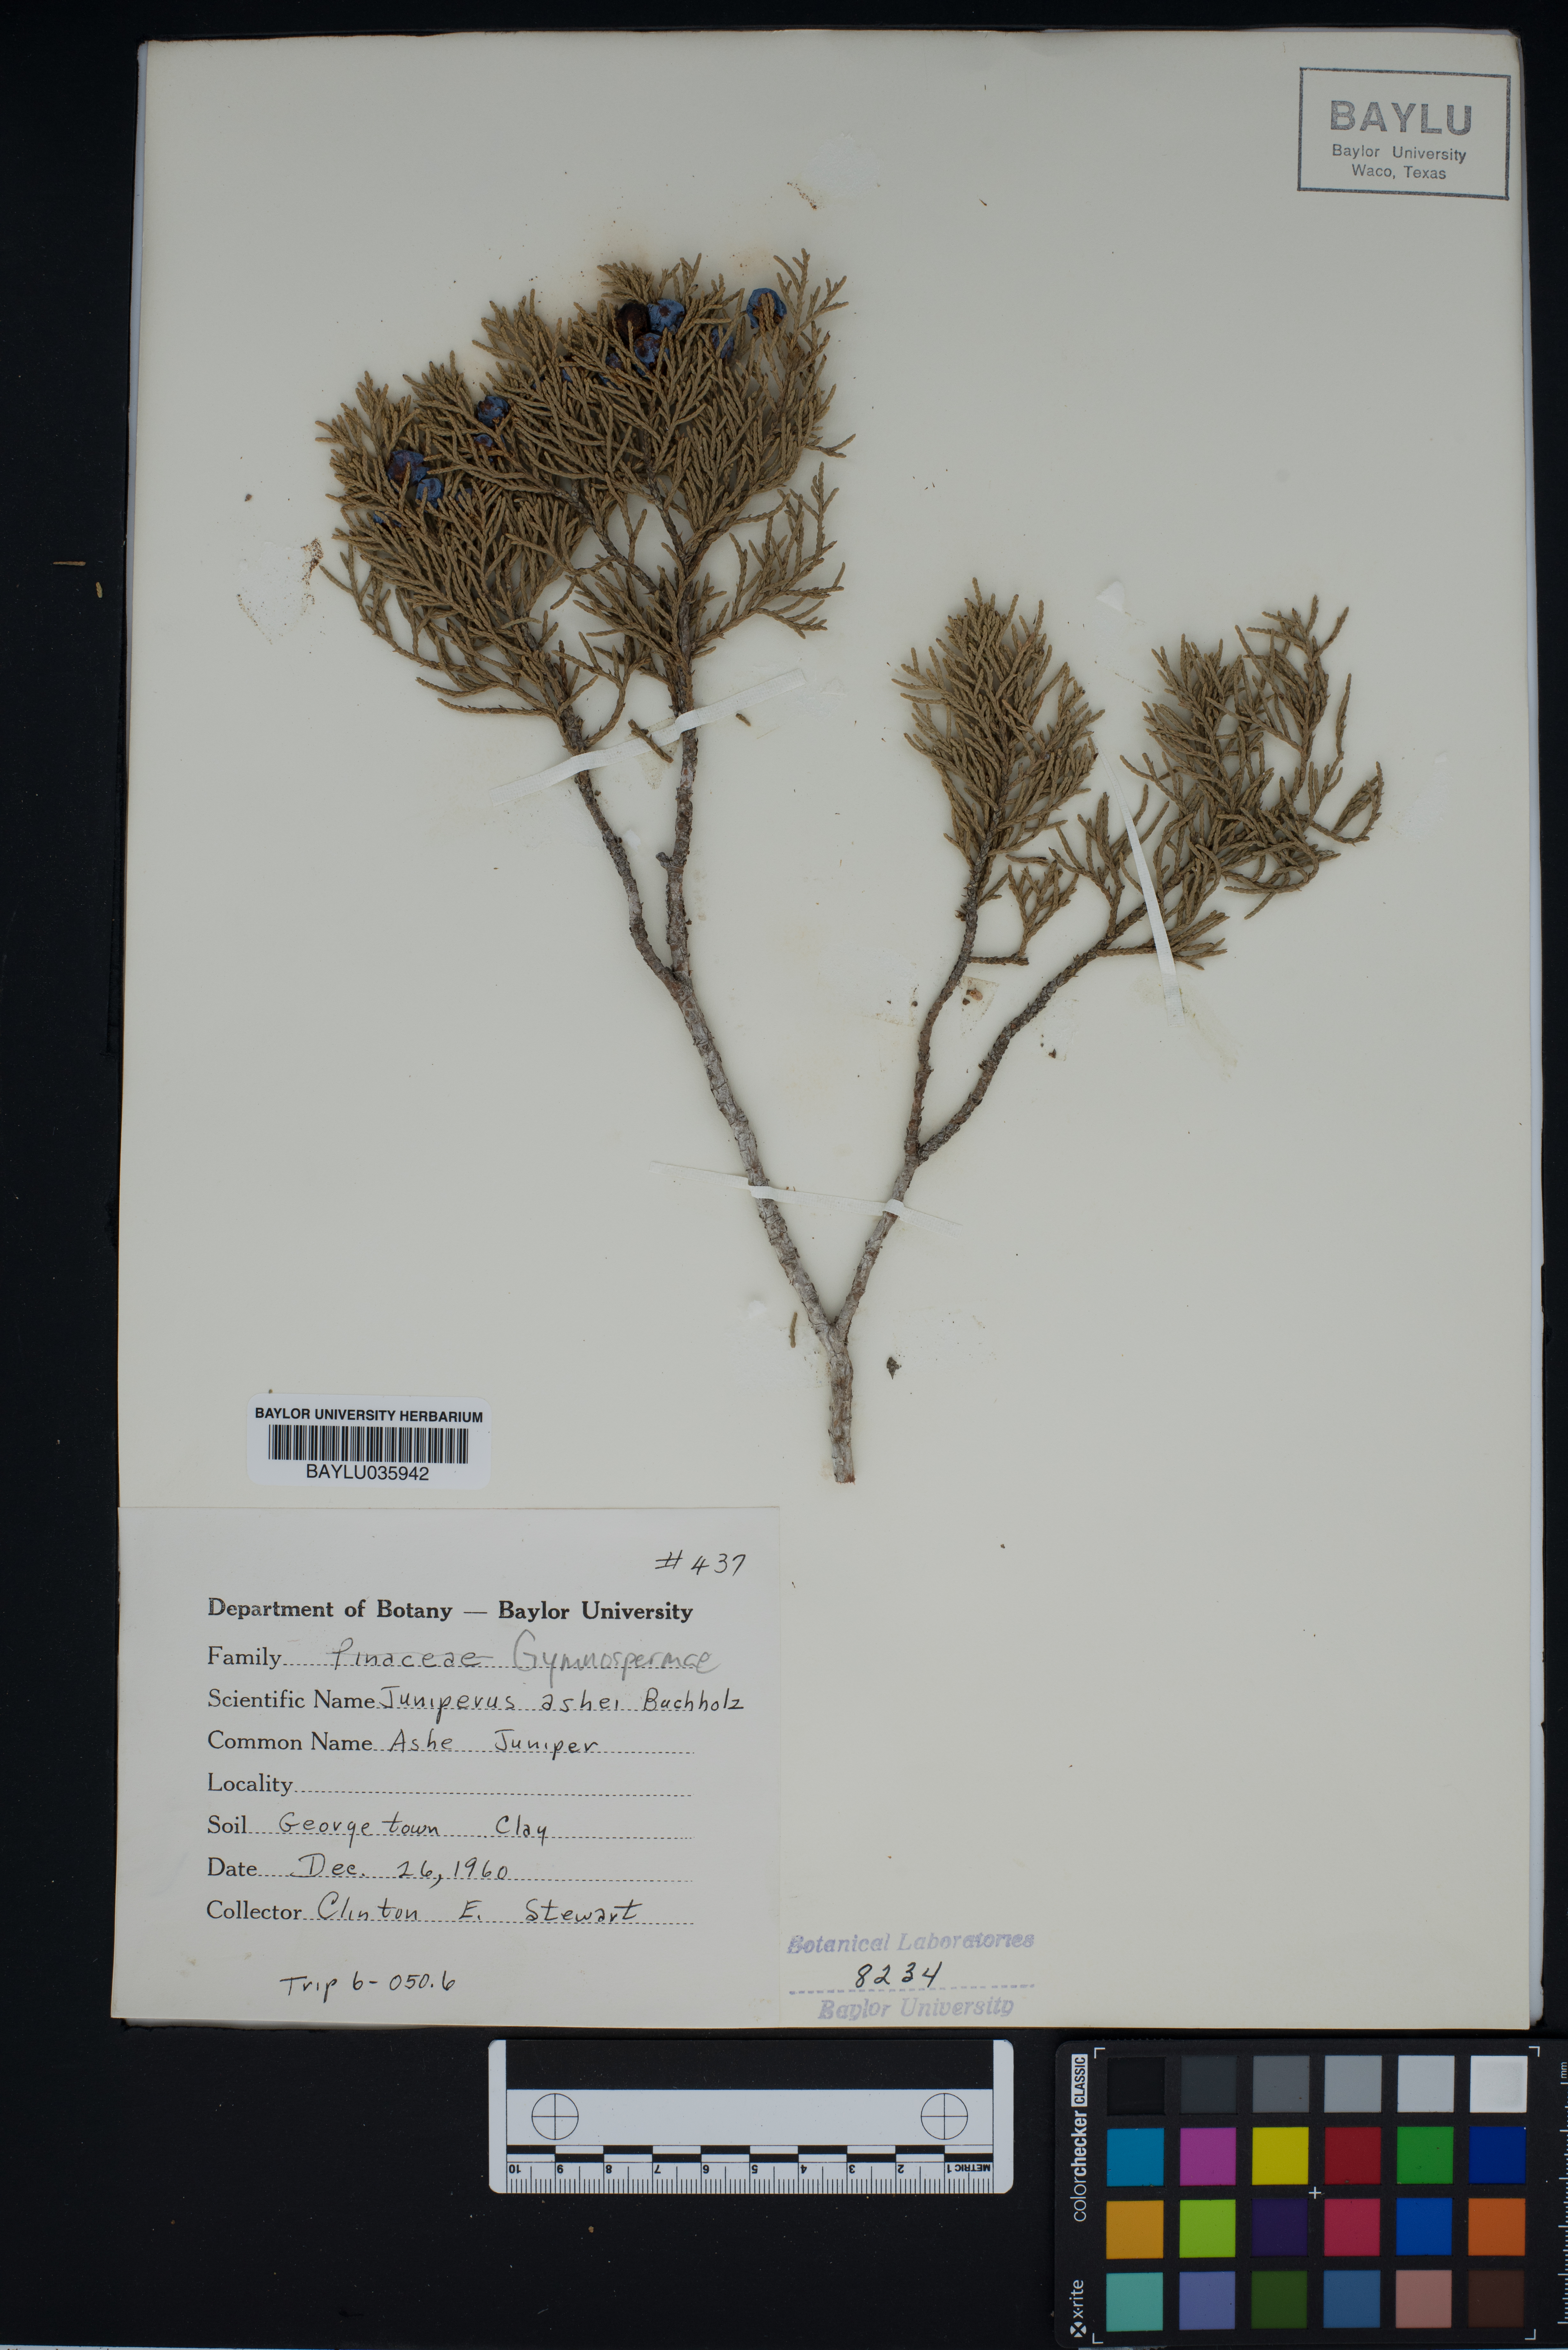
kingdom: Plantae
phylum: Tracheophyta
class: Pinopsida
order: Pinales
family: Cupressaceae
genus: Juniperus
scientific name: Juniperus ashei
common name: Mexican juniper
